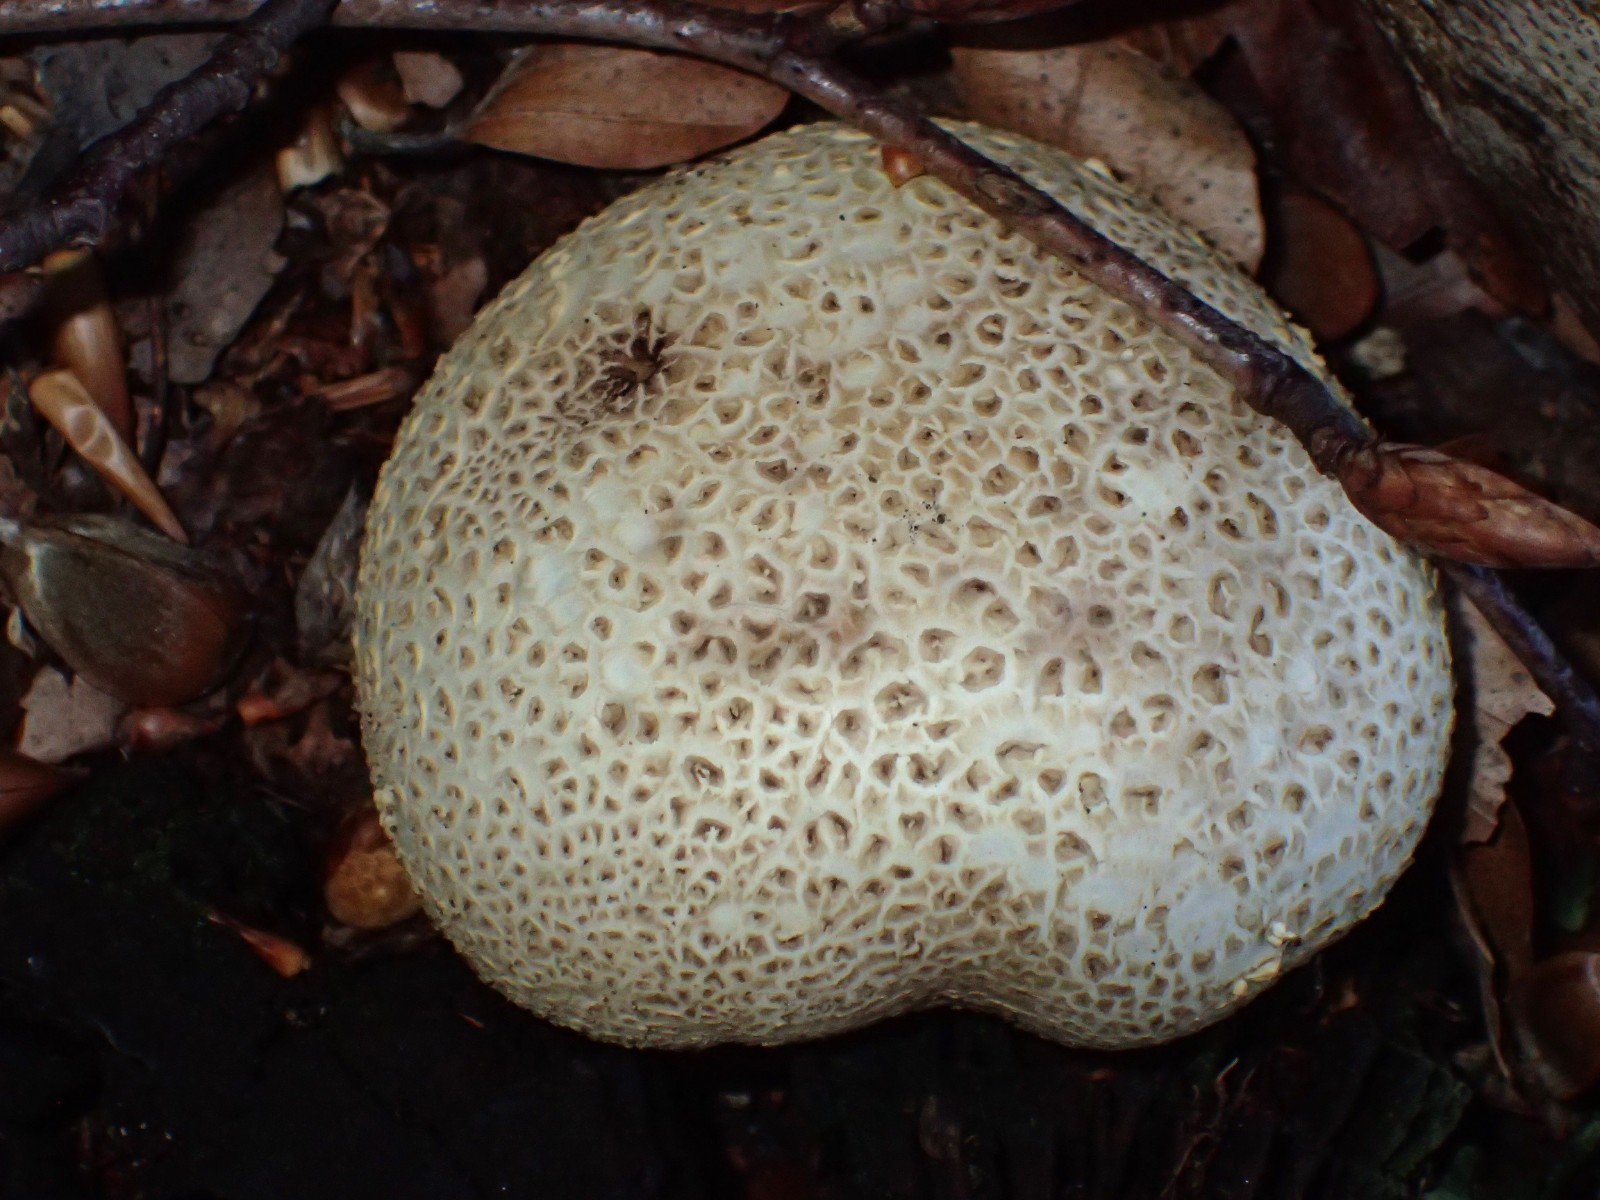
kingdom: Fungi
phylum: Basidiomycota
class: Agaricomycetes
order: Boletales
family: Sclerodermataceae
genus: Scleroderma
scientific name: Scleroderma citrinum
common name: almindelig bruskbold
